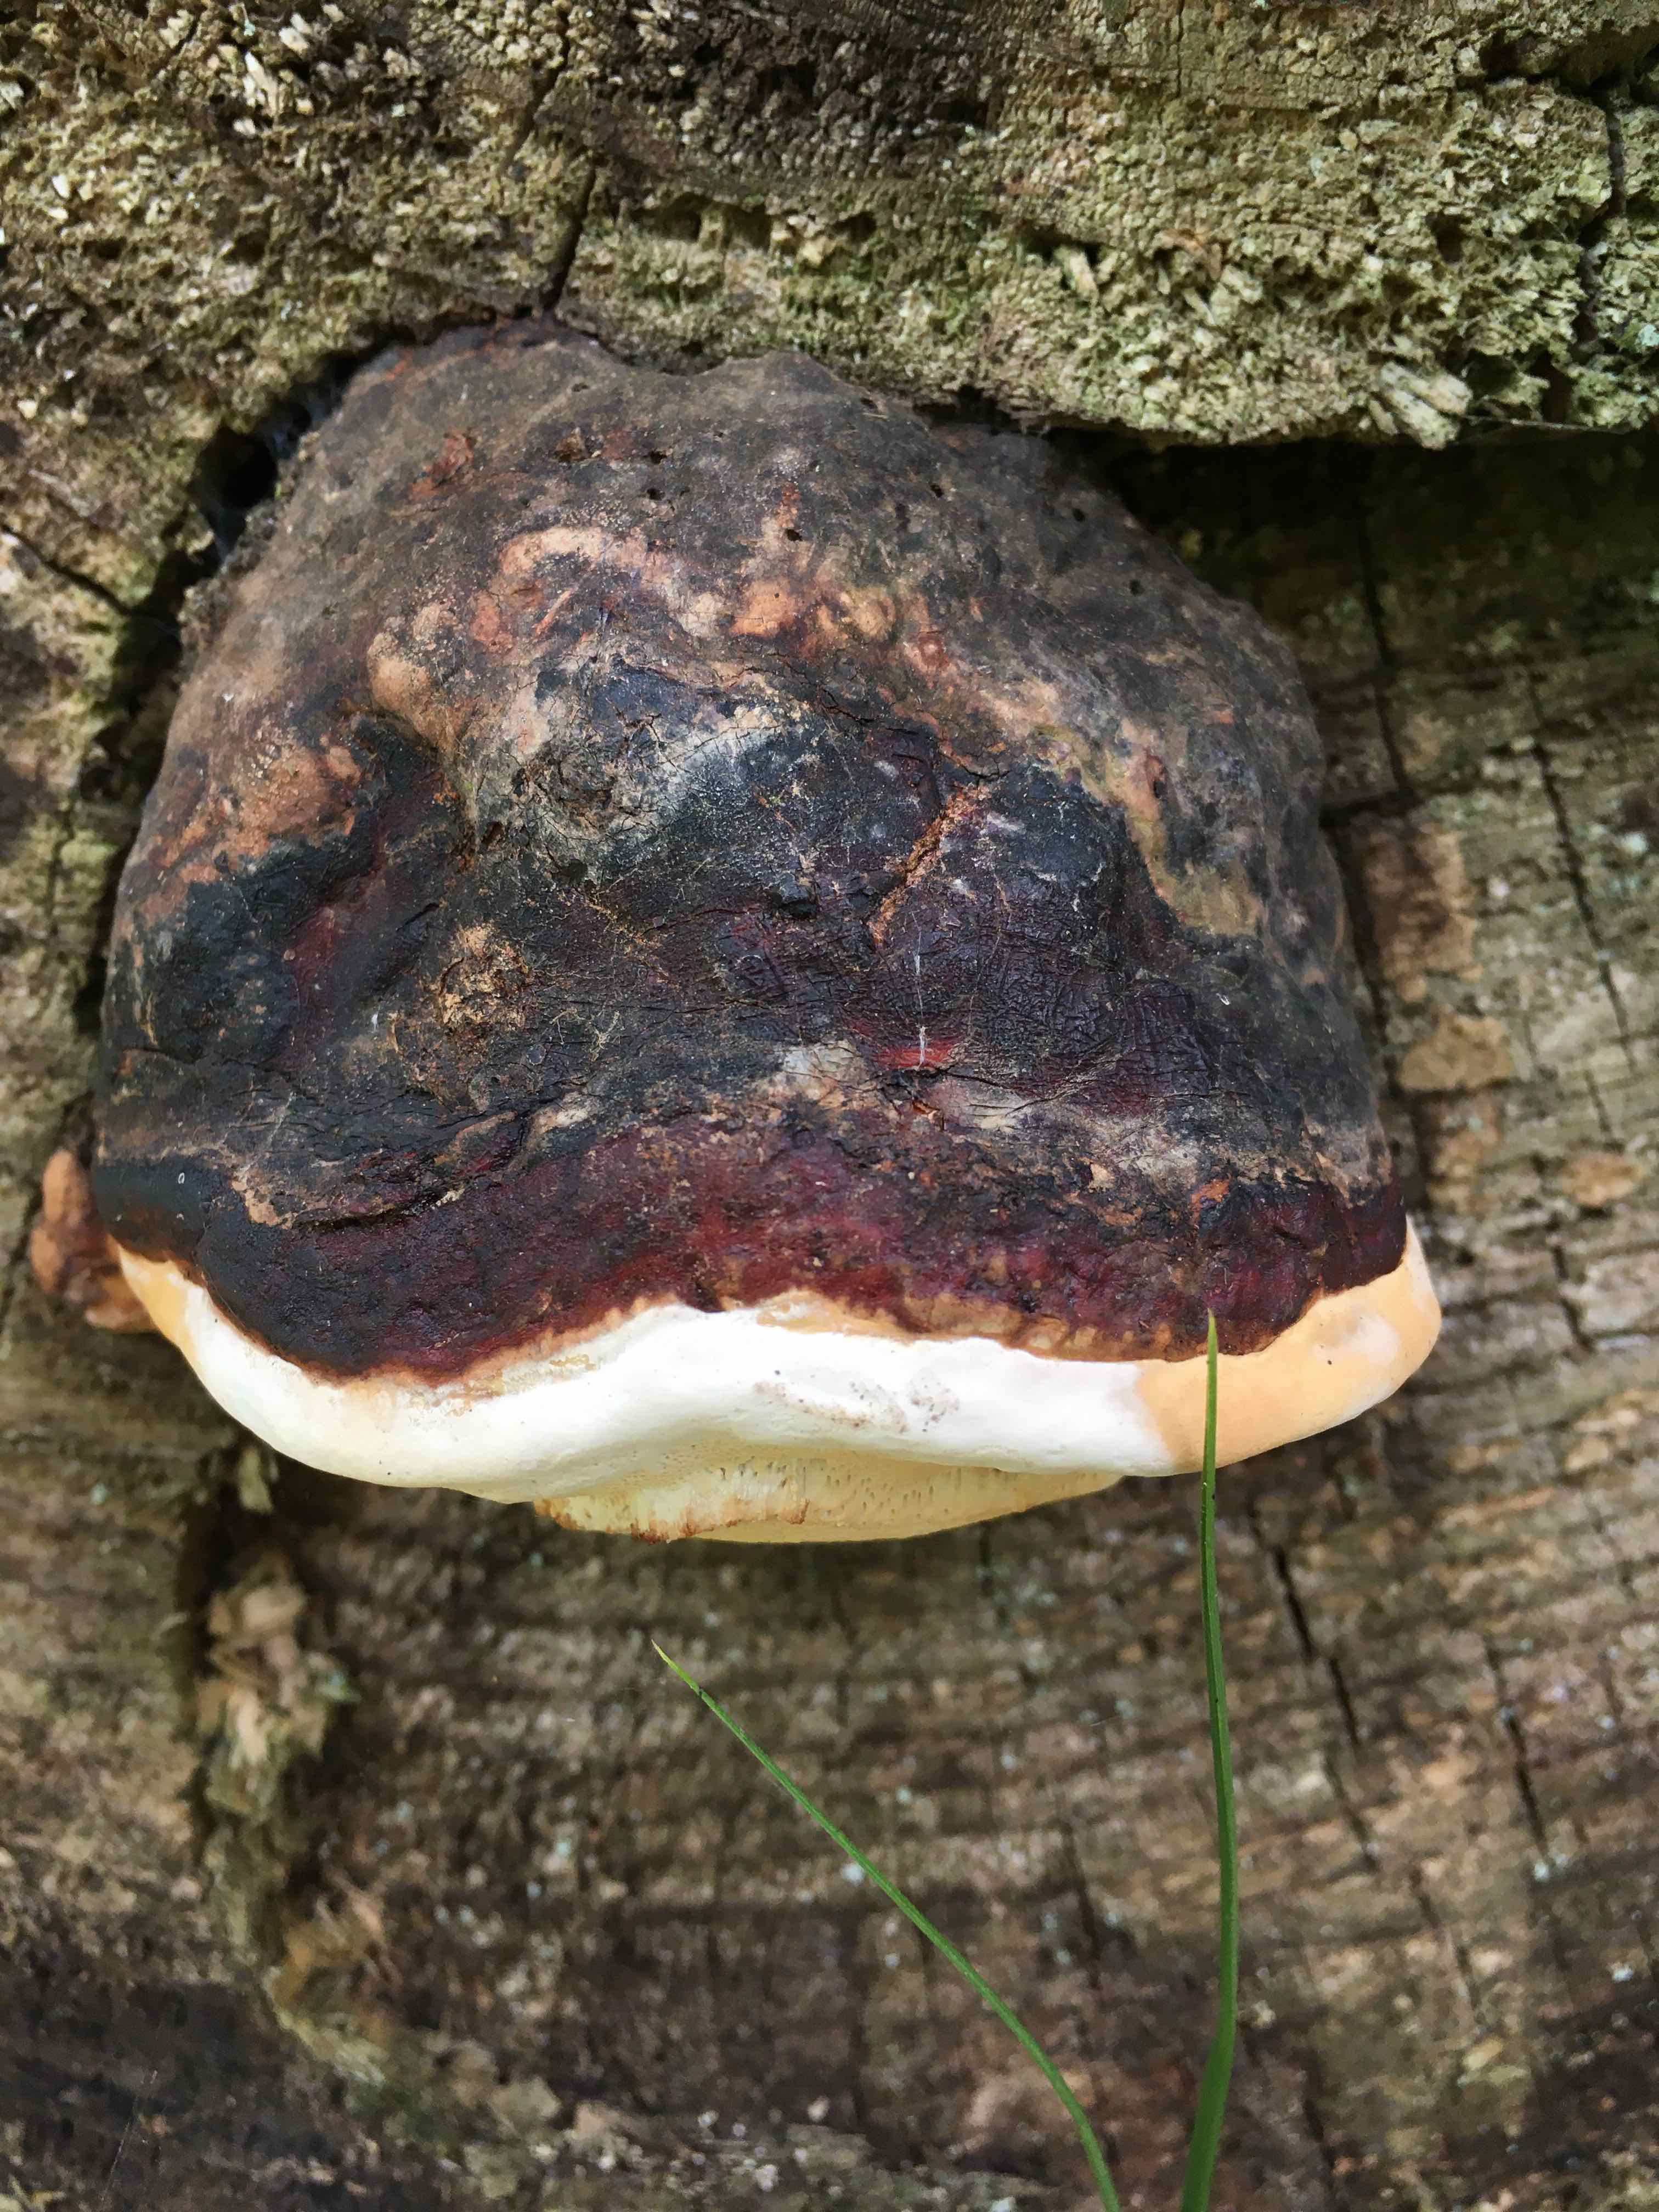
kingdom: Fungi
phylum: Basidiomycota
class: Agaricomycetes
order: Polyporales
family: Fomitopsidaceae
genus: Fomitopsis
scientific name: Fomitopsis pinicola
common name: randbæltet hovporesvamp
